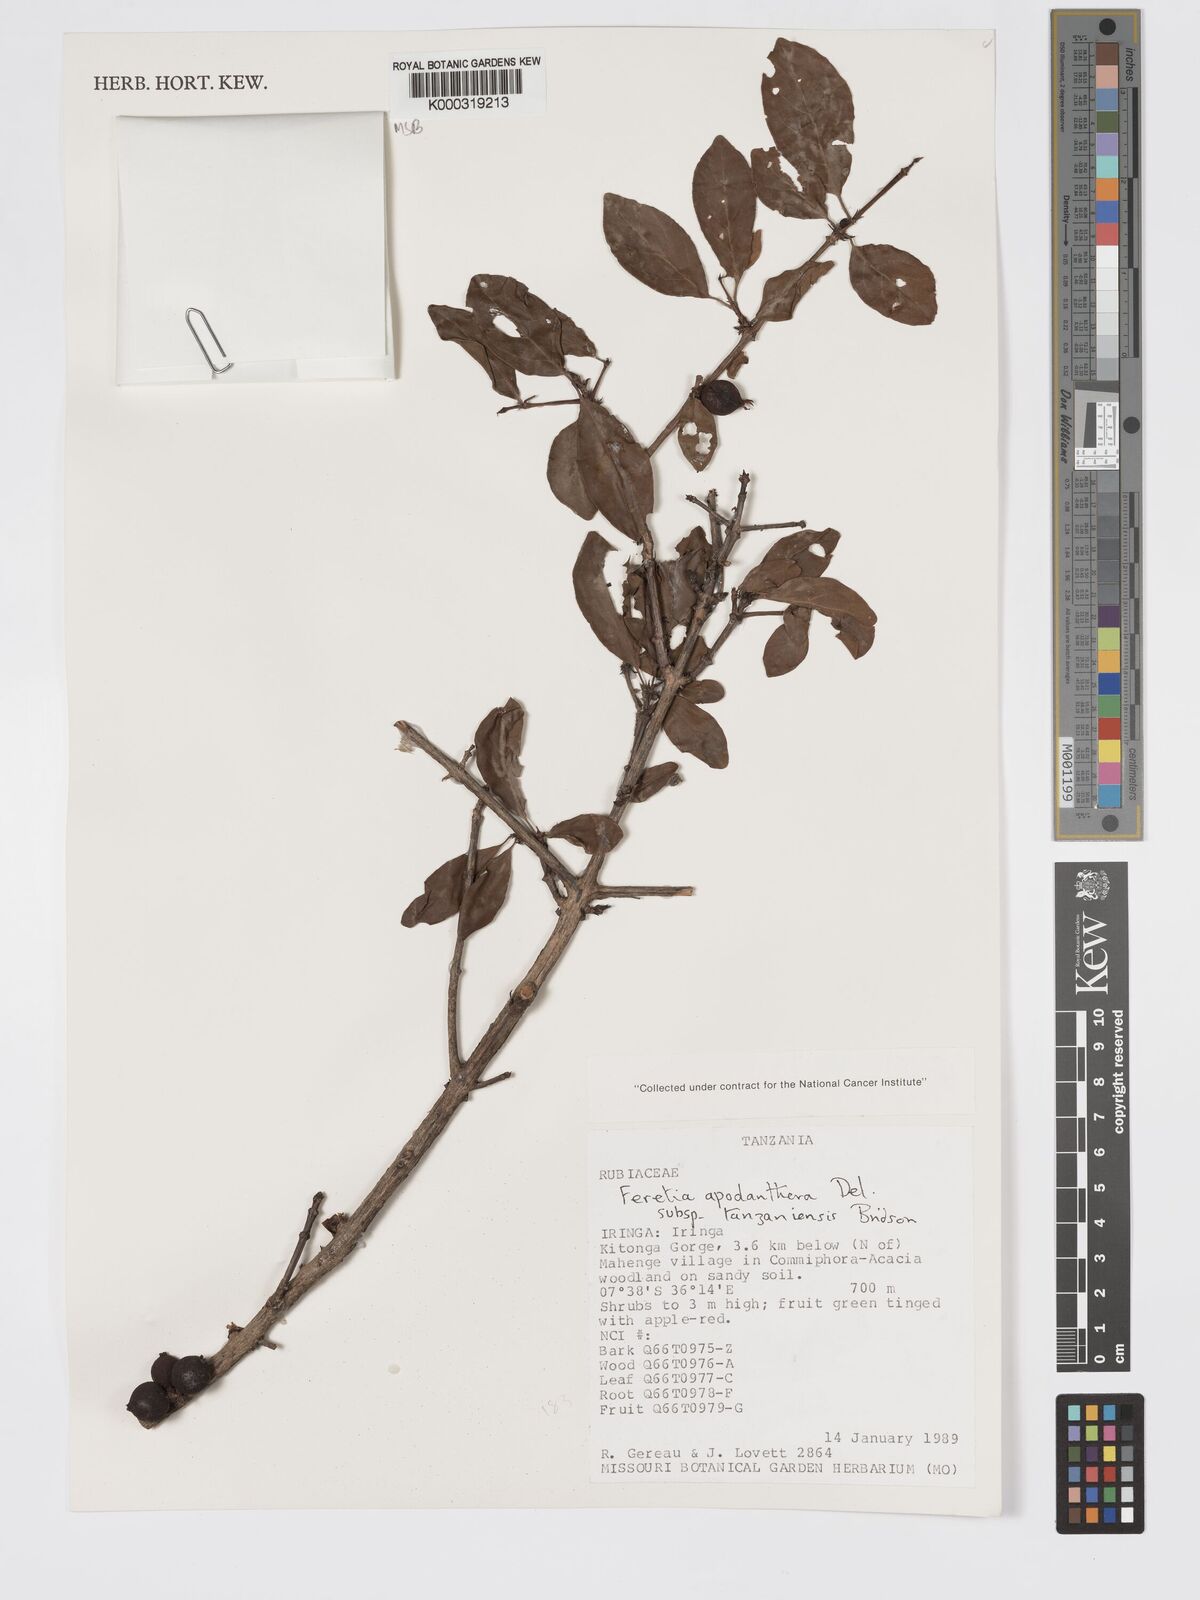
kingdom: Plantae
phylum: Tracheophyta
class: Magnoliopsida
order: Gentianales
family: Rubiaceae
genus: Feretia
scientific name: Feretia apodanthera
